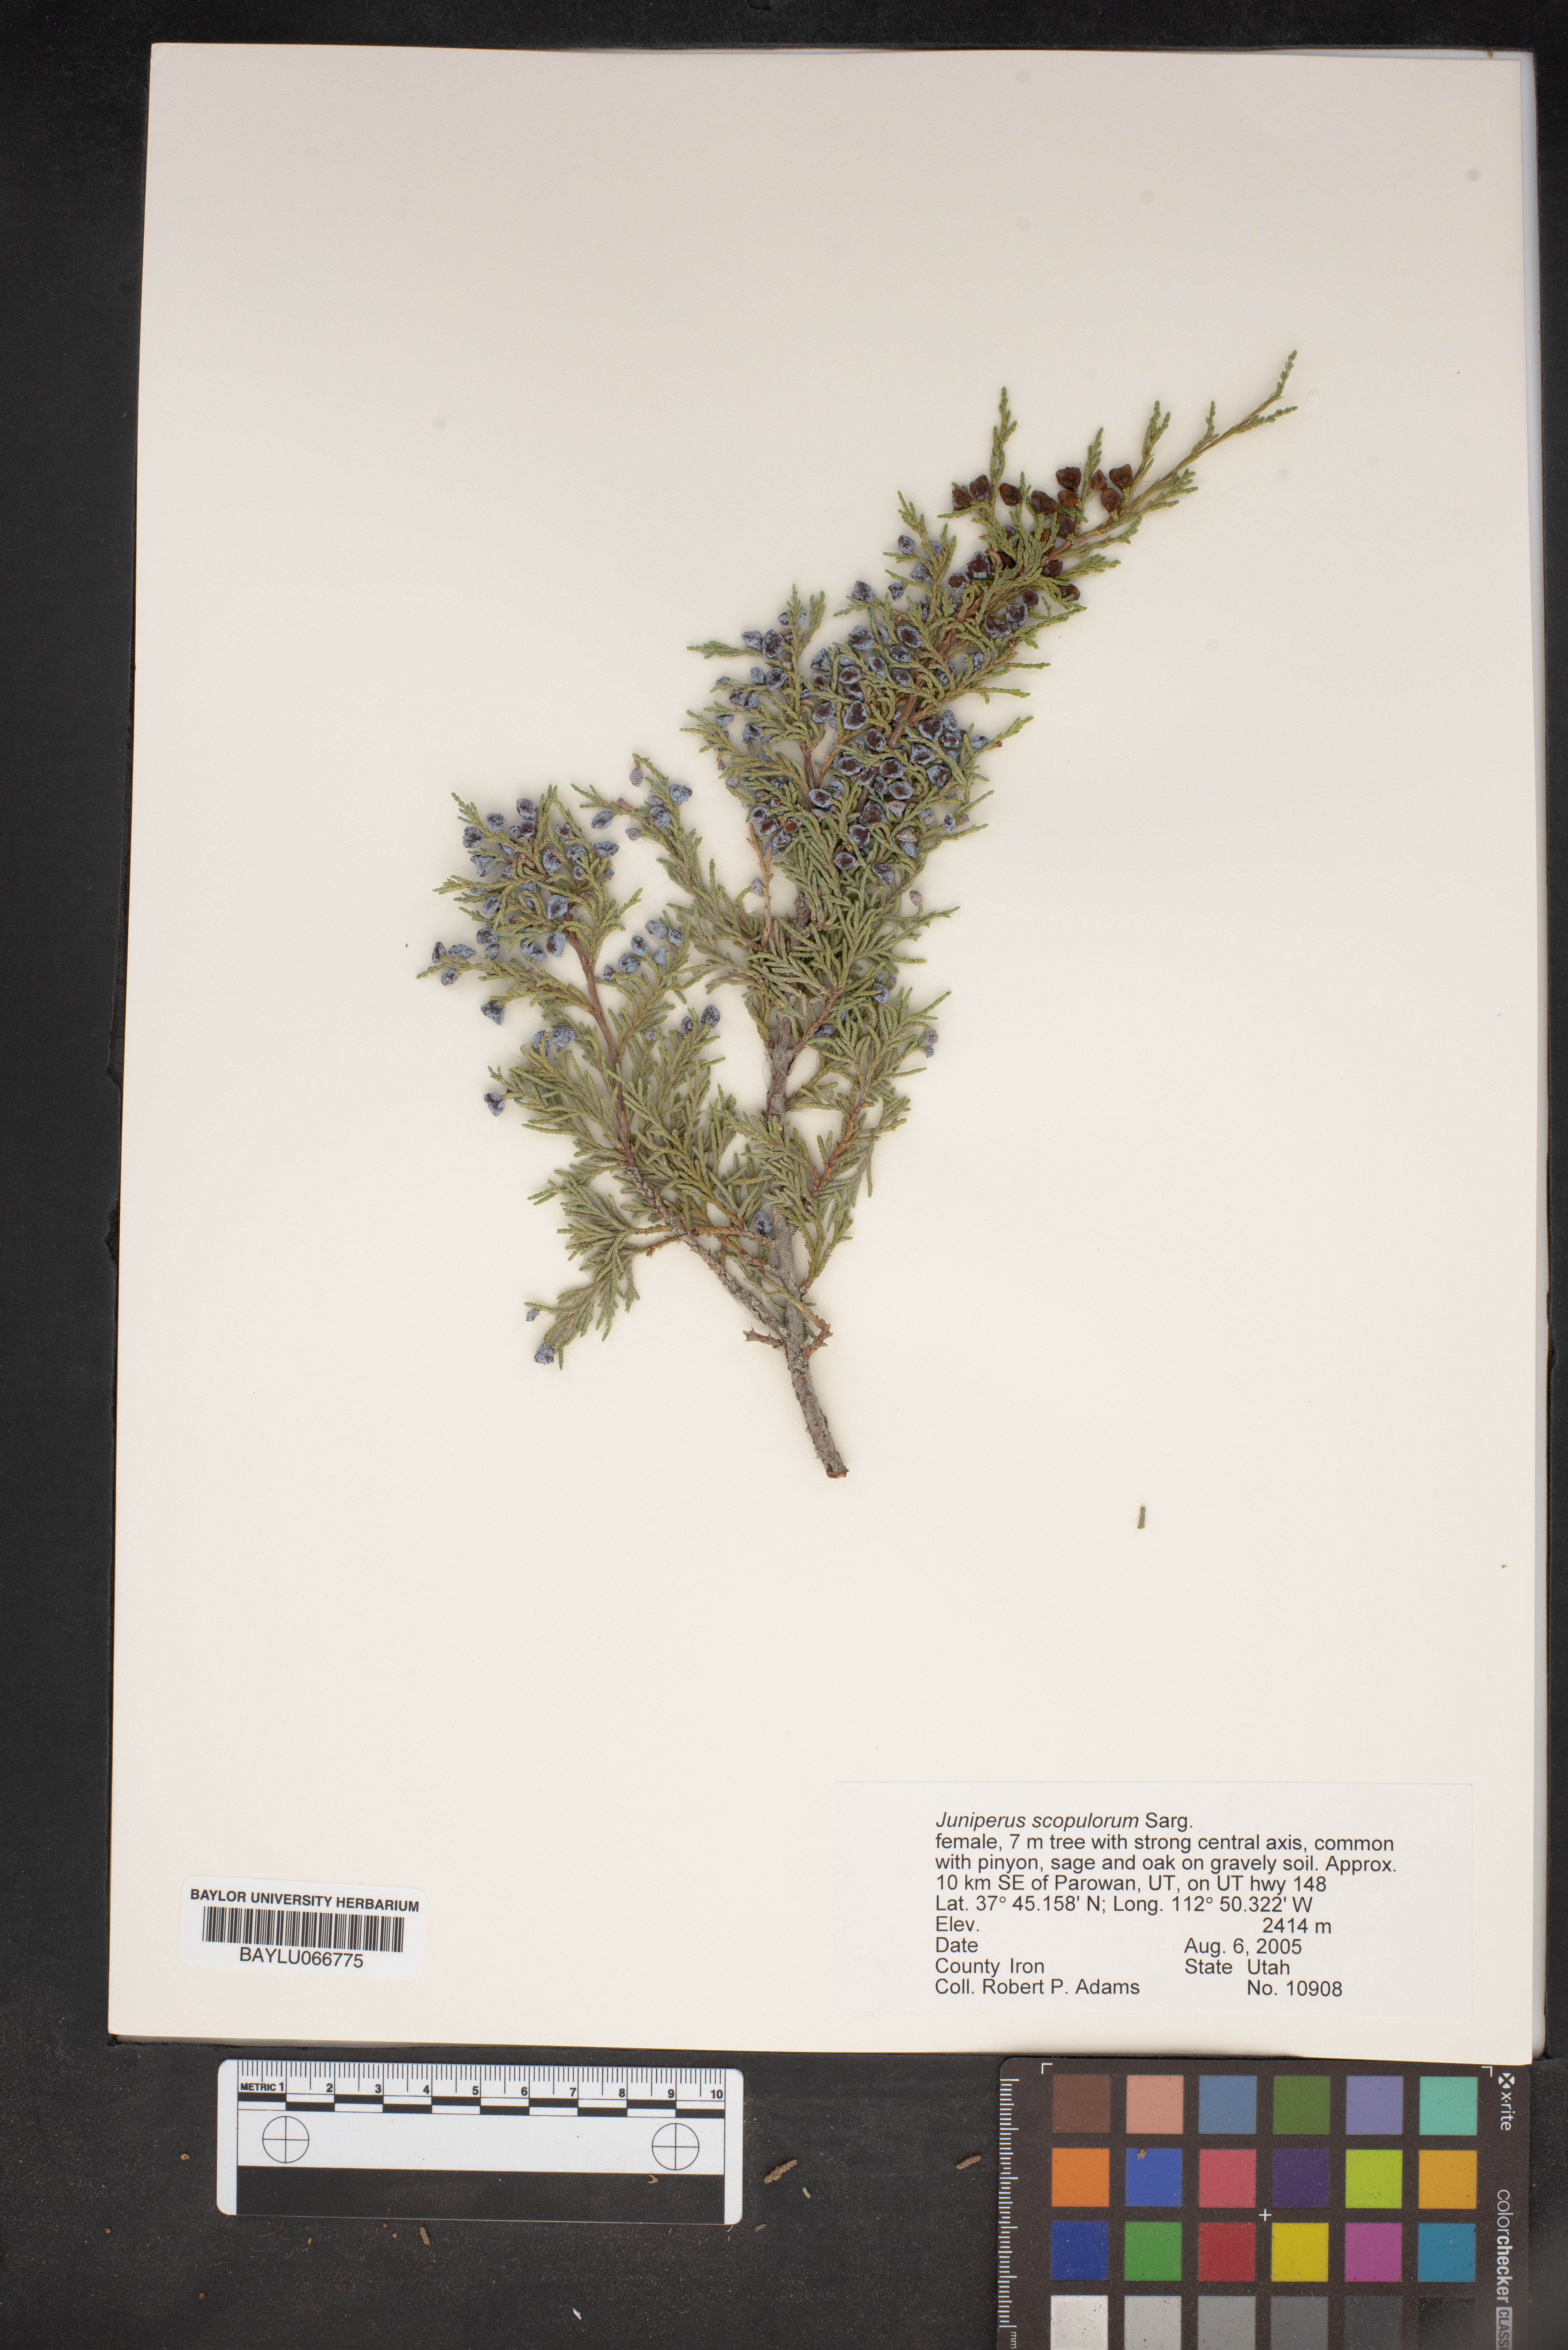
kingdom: Plantae
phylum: Tracheophyta
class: Pinopsida
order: Pinales
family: Cupressaceae
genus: Juniperus
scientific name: Juniperus scopulorum
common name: Rocky mountain juniper
